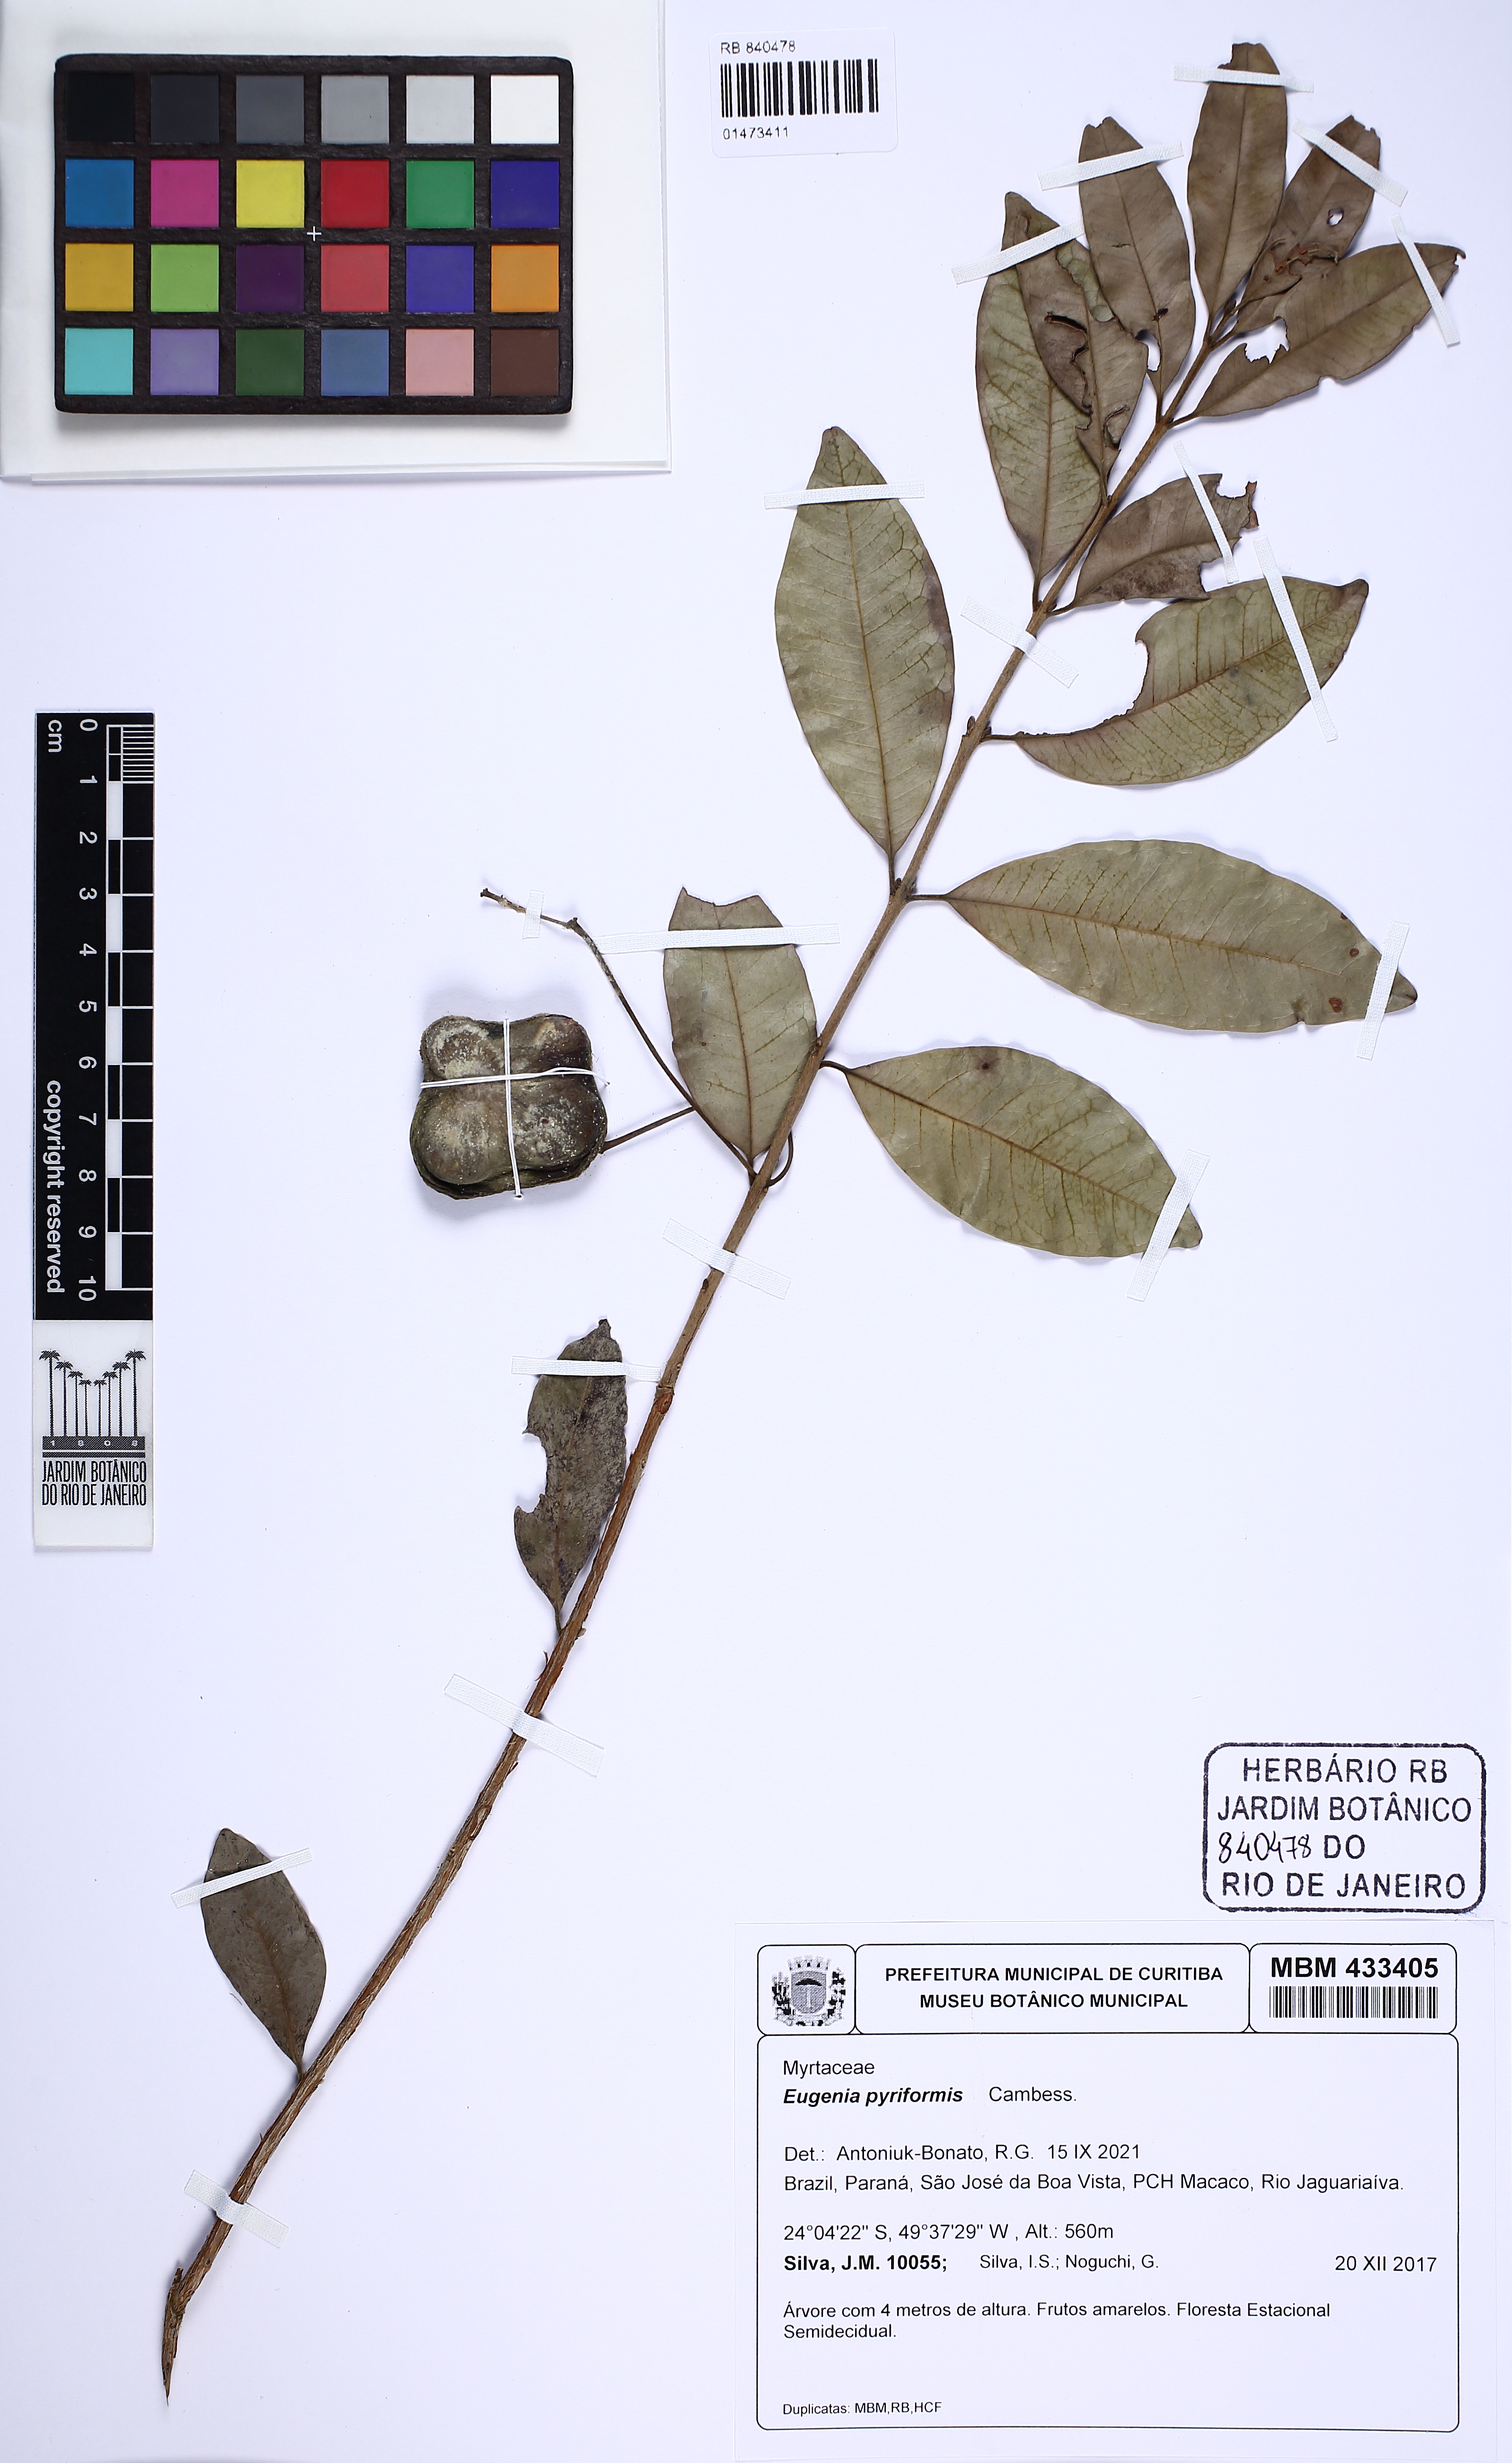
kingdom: Plantae
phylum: Tracheophyta
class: Magnoliopsida
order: Myrtales
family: Myrtaceae
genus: Eugenia
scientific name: Eugenia pyriformis
